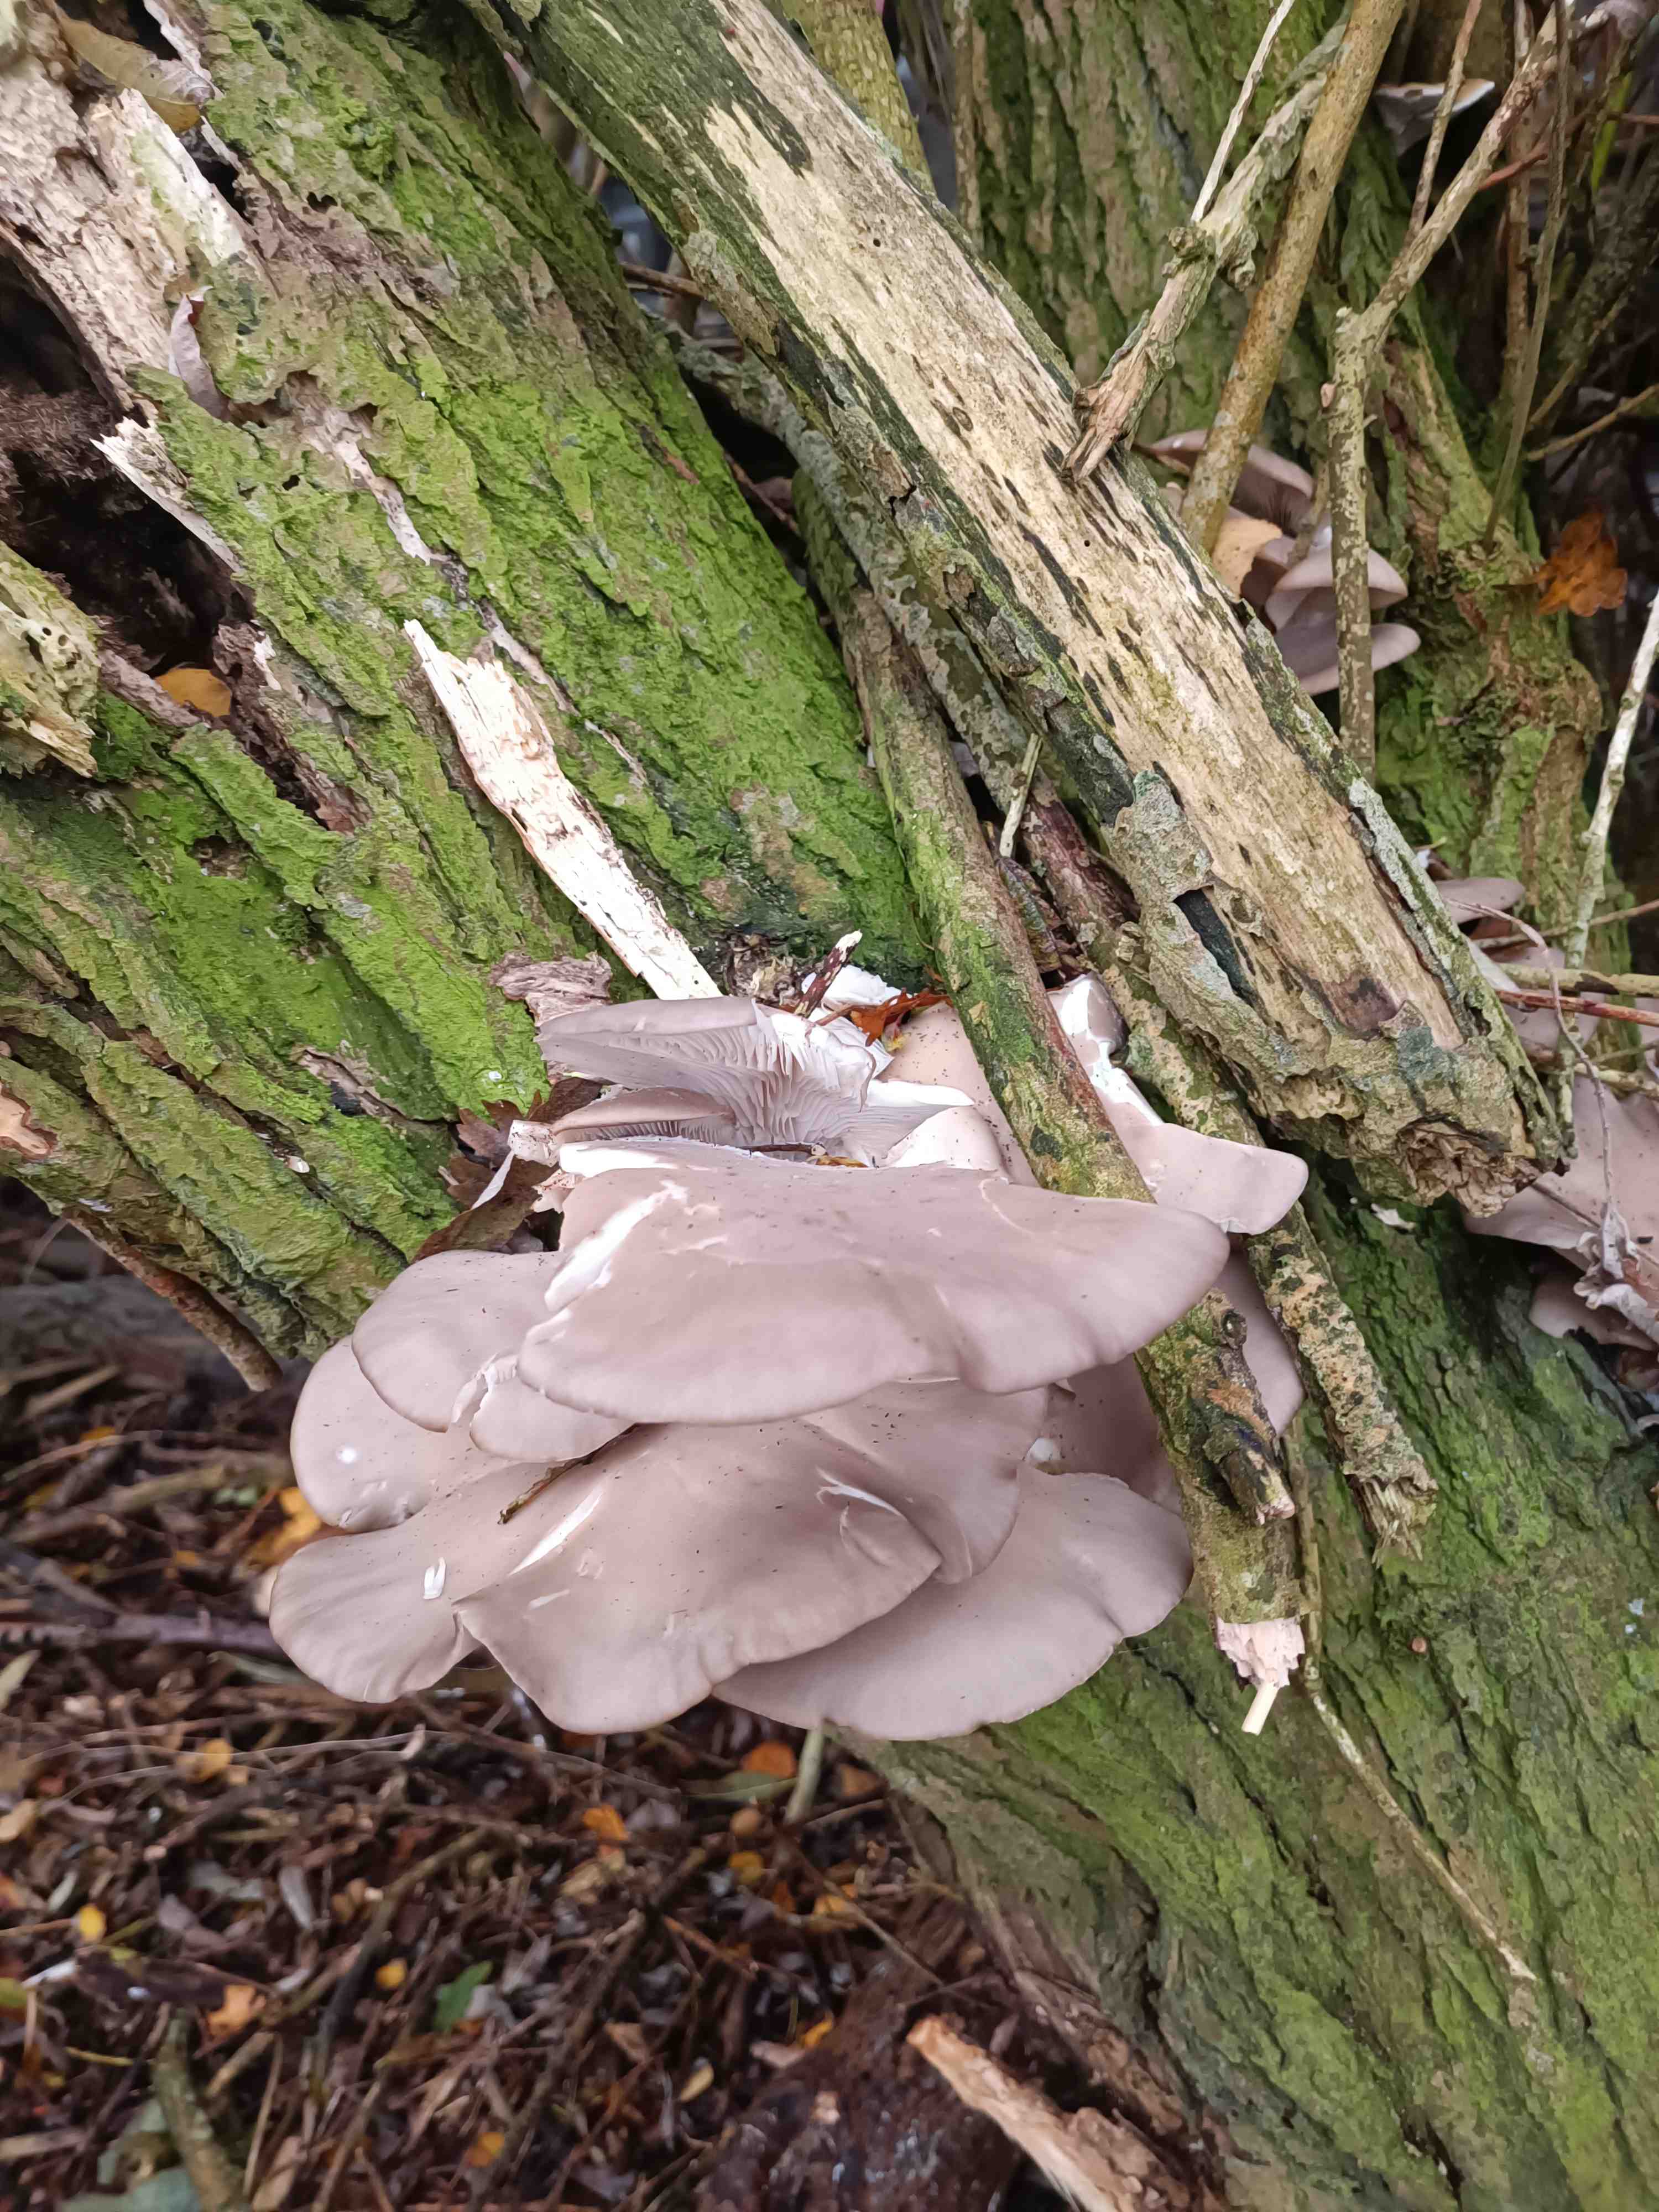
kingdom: Fungi
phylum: Basidiomycota
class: Agaricomycetes
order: Agaricales
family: Pleurotaceae
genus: Pleurotus
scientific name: Pleurotus ostreatus
